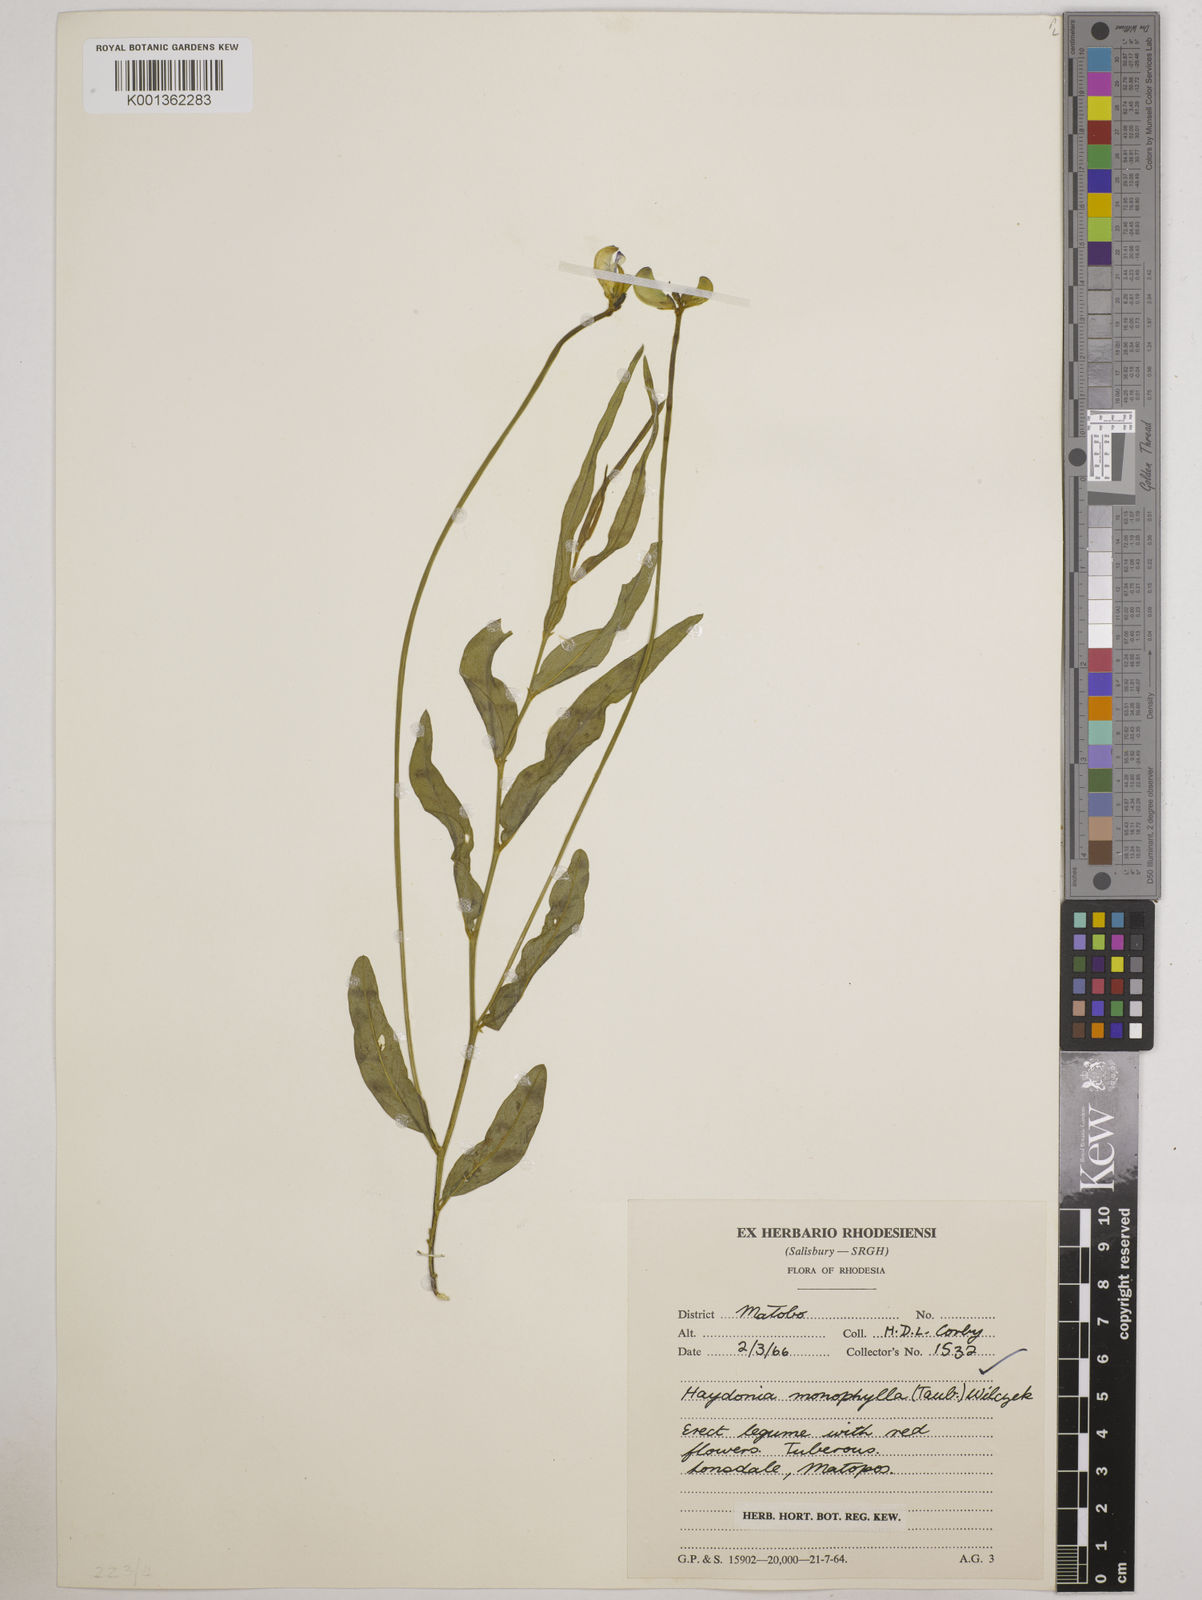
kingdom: Plantae
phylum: Tracheophyta
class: Magnoliopsida
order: Fabales
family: Fabaceae
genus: Vigna
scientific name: Vigna monophylla
